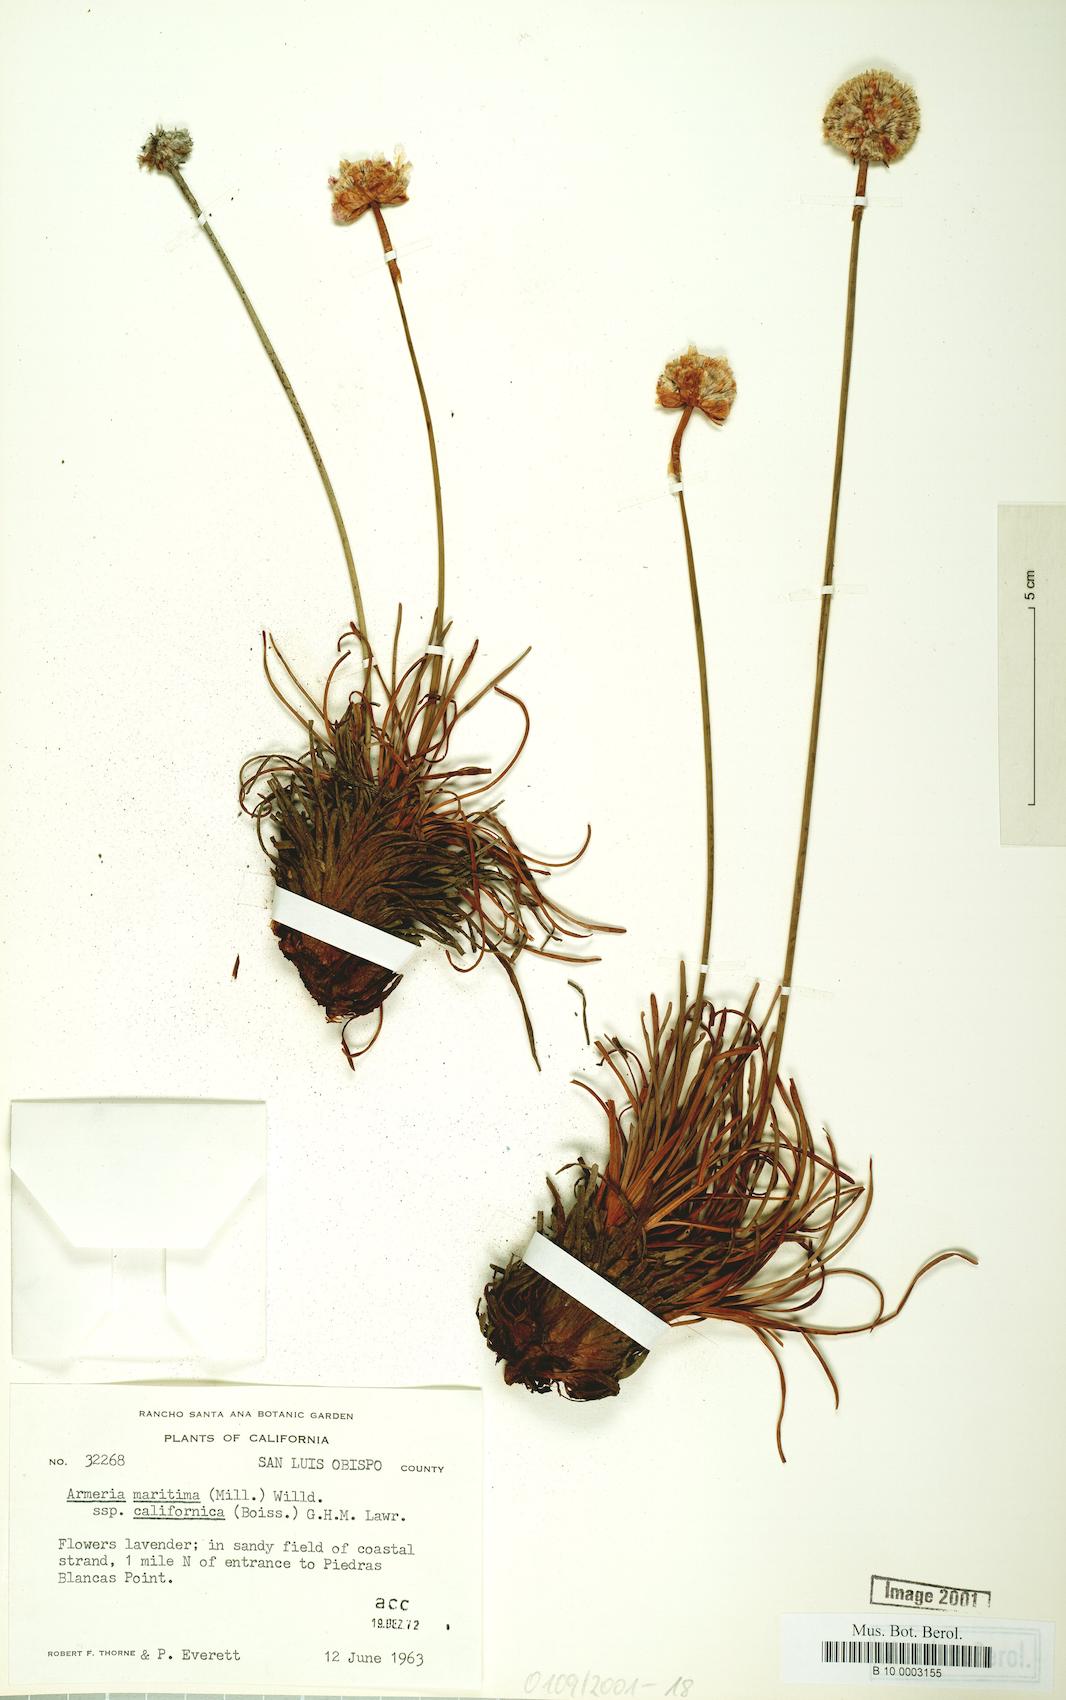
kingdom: Plantae
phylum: Tracheophyta
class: Magnoliopsida
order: Caryophyllales
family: Plumbaginaceae
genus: Armeria
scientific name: Armeria maritima
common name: Thrift
